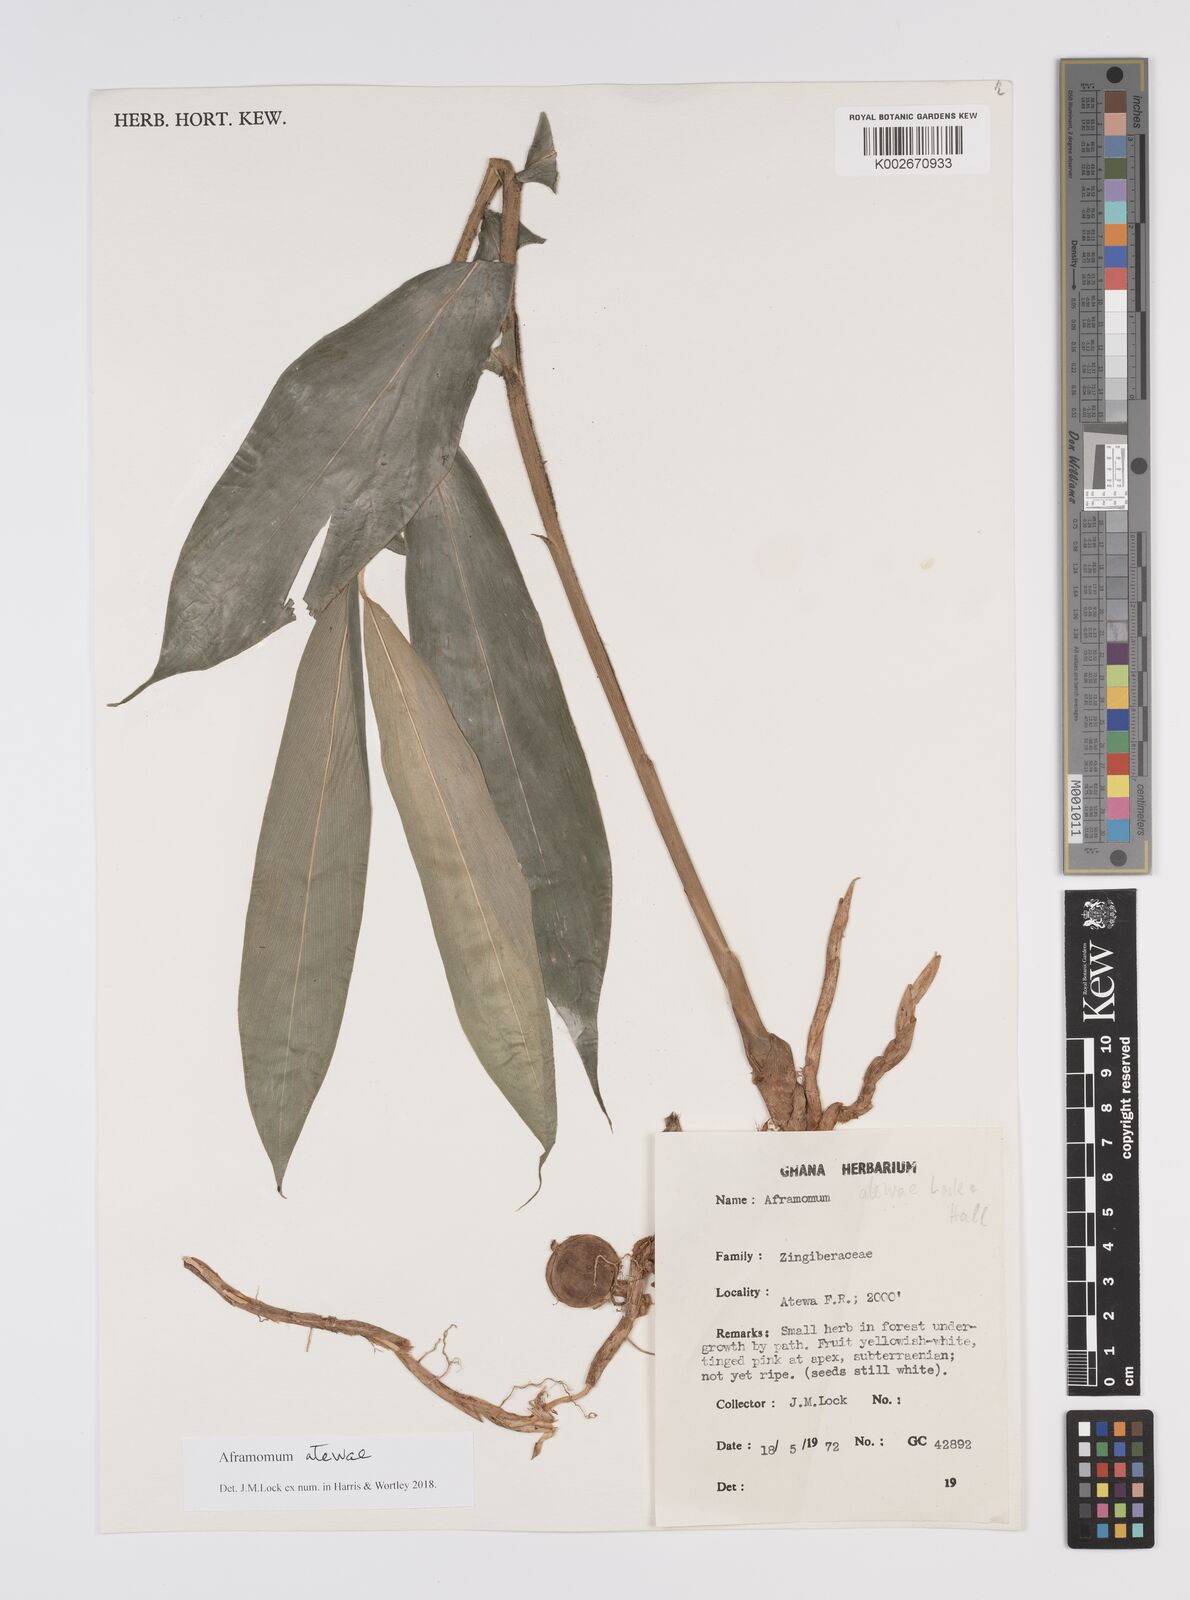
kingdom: Plantae
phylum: Tracheophyta
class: Liliopsida
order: Zingiberales
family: Zingiberaceae
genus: Aframomum
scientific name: Aframomum atewae
